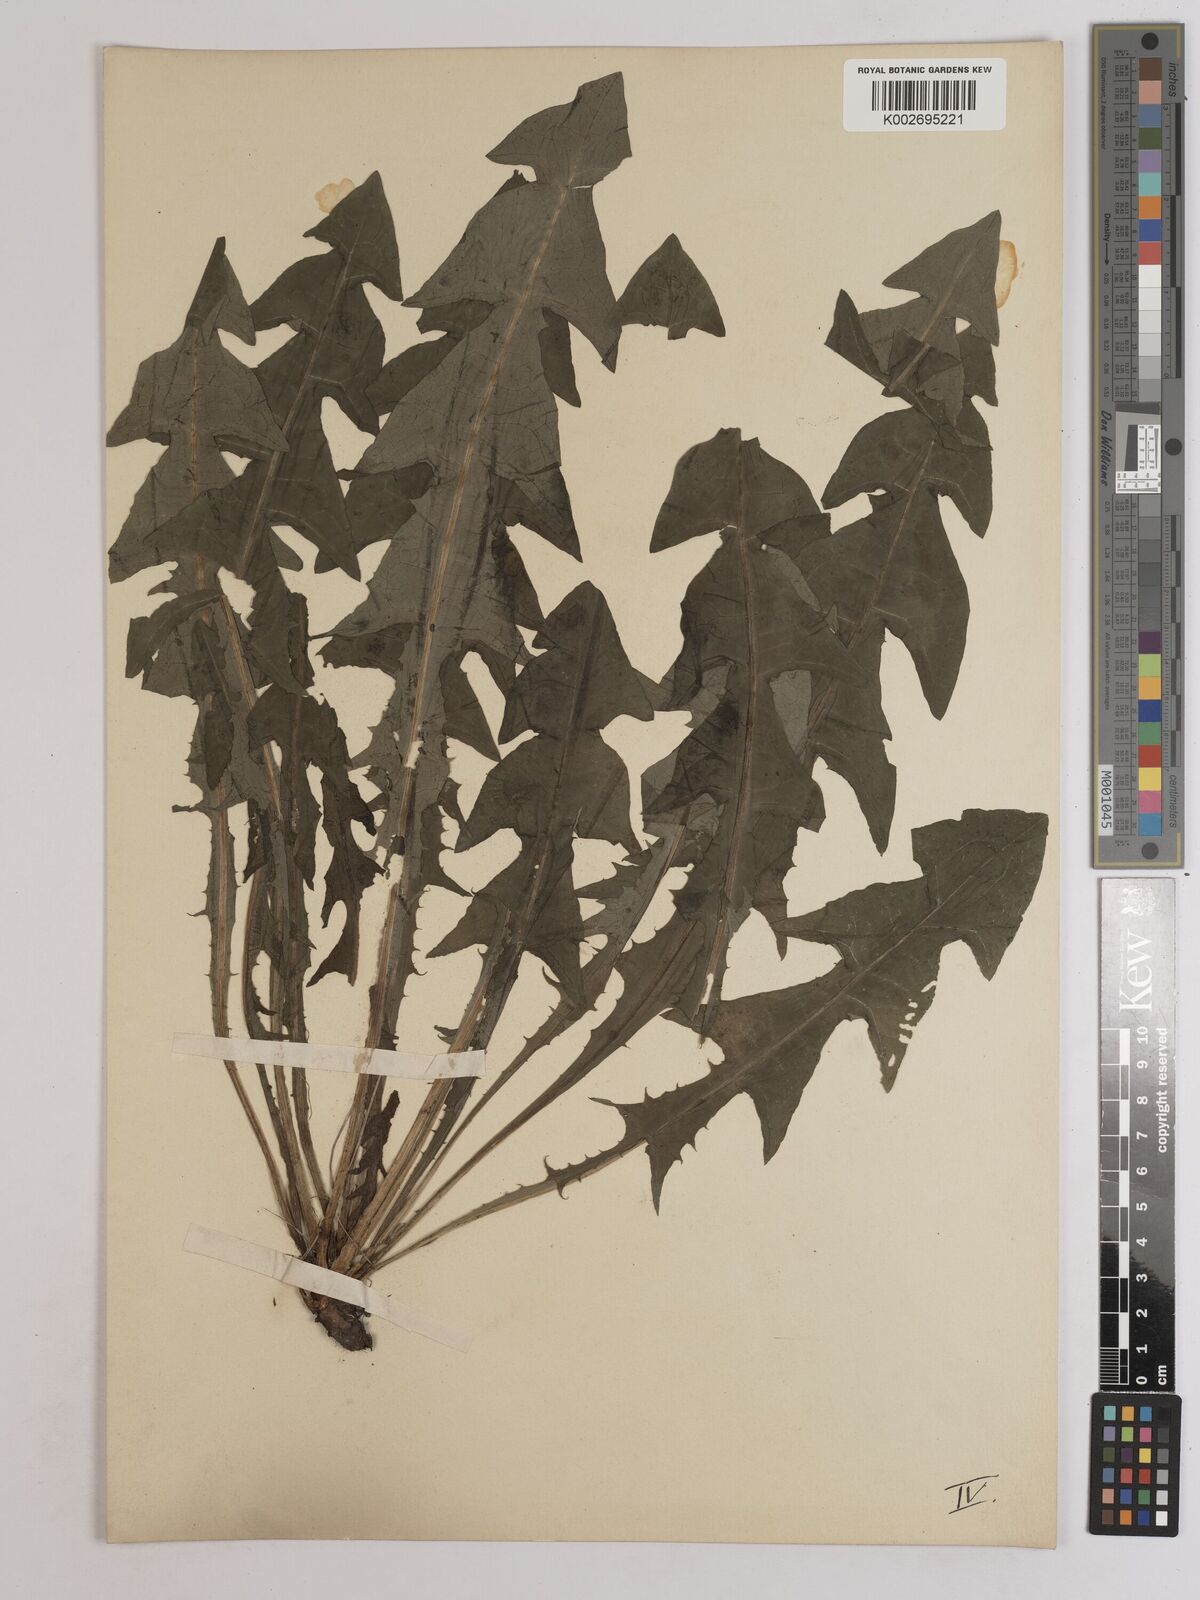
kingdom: Plantae
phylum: Tracheophyta
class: Magnoliopsida
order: Asterales
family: Asteraceae
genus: Taraxacum
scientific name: Taraxacum officinale
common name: Common dandelion
